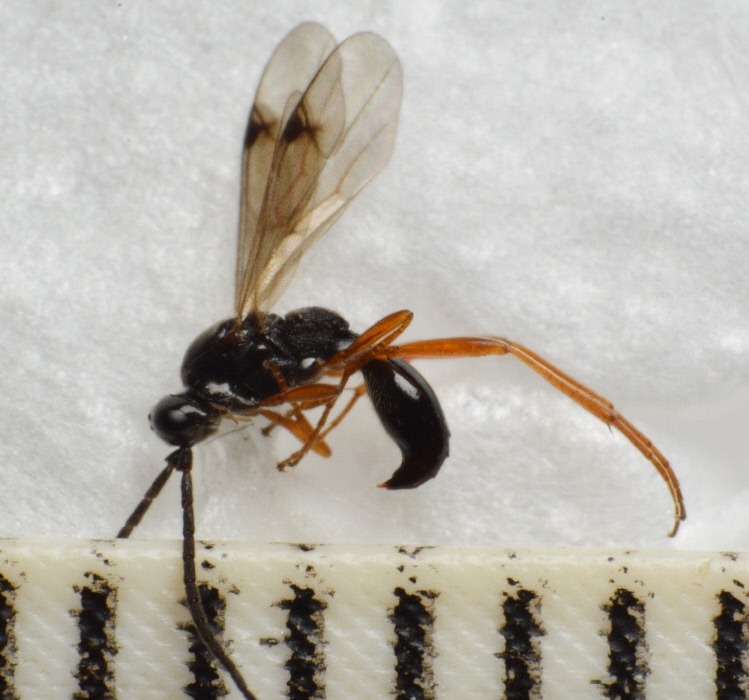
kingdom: Animalia
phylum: Arthropoda
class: Insecta
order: Hymenoptera
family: Proctotrupidae
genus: Phaenoserphus
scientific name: Phaenoserphus viator
